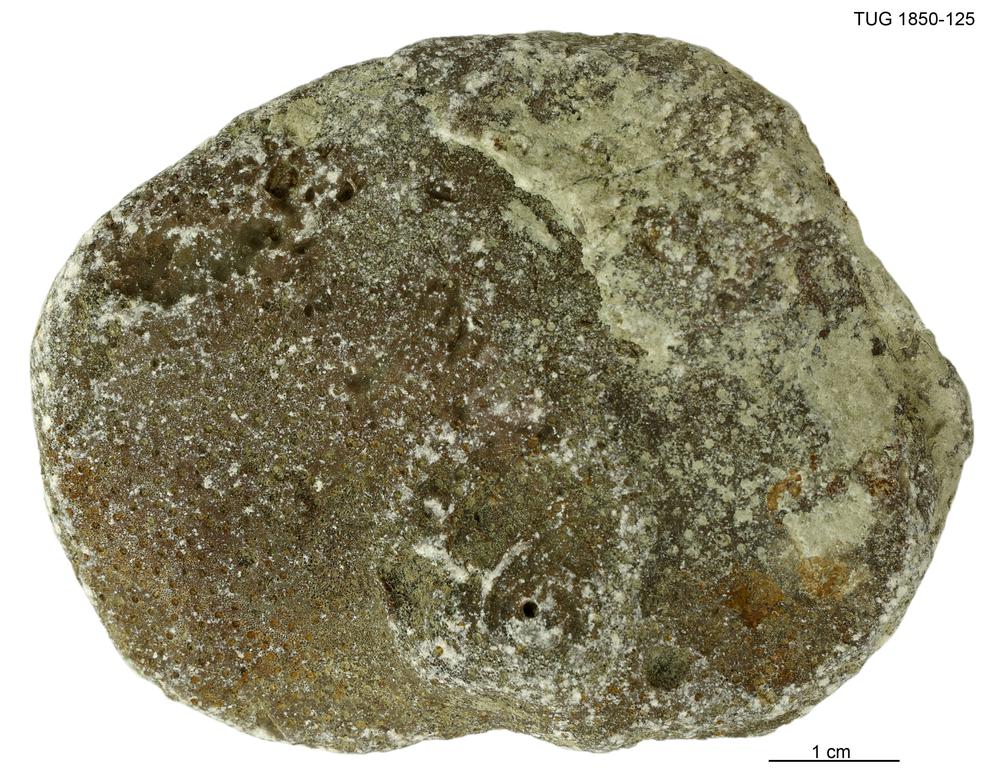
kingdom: Animalia
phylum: Cnidaria
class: Anthozoa
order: Heliolitina
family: Heliolitidae
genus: Heliolites
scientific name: Heliolites
